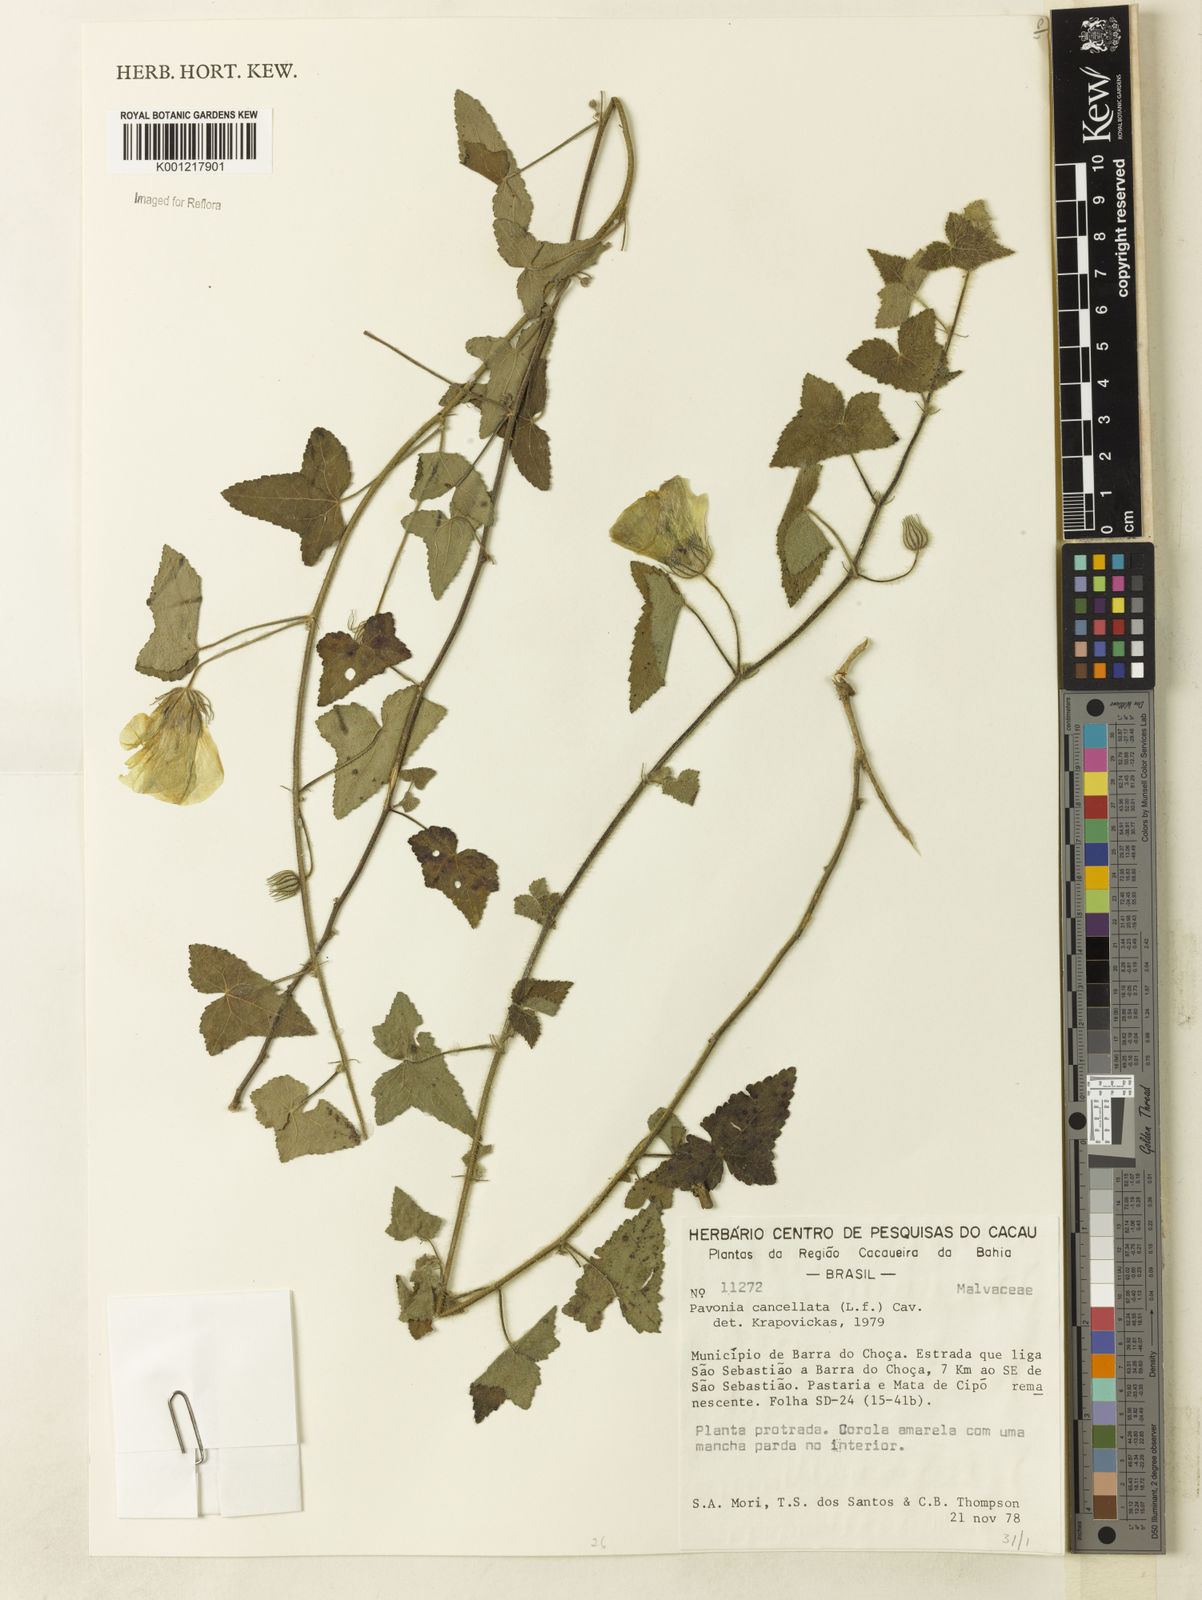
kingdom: Plantae
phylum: Tracheophyta
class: Magnoliopsida
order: Malvales
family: Malvaceae
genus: Pavonia
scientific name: Pavonia cancellata
